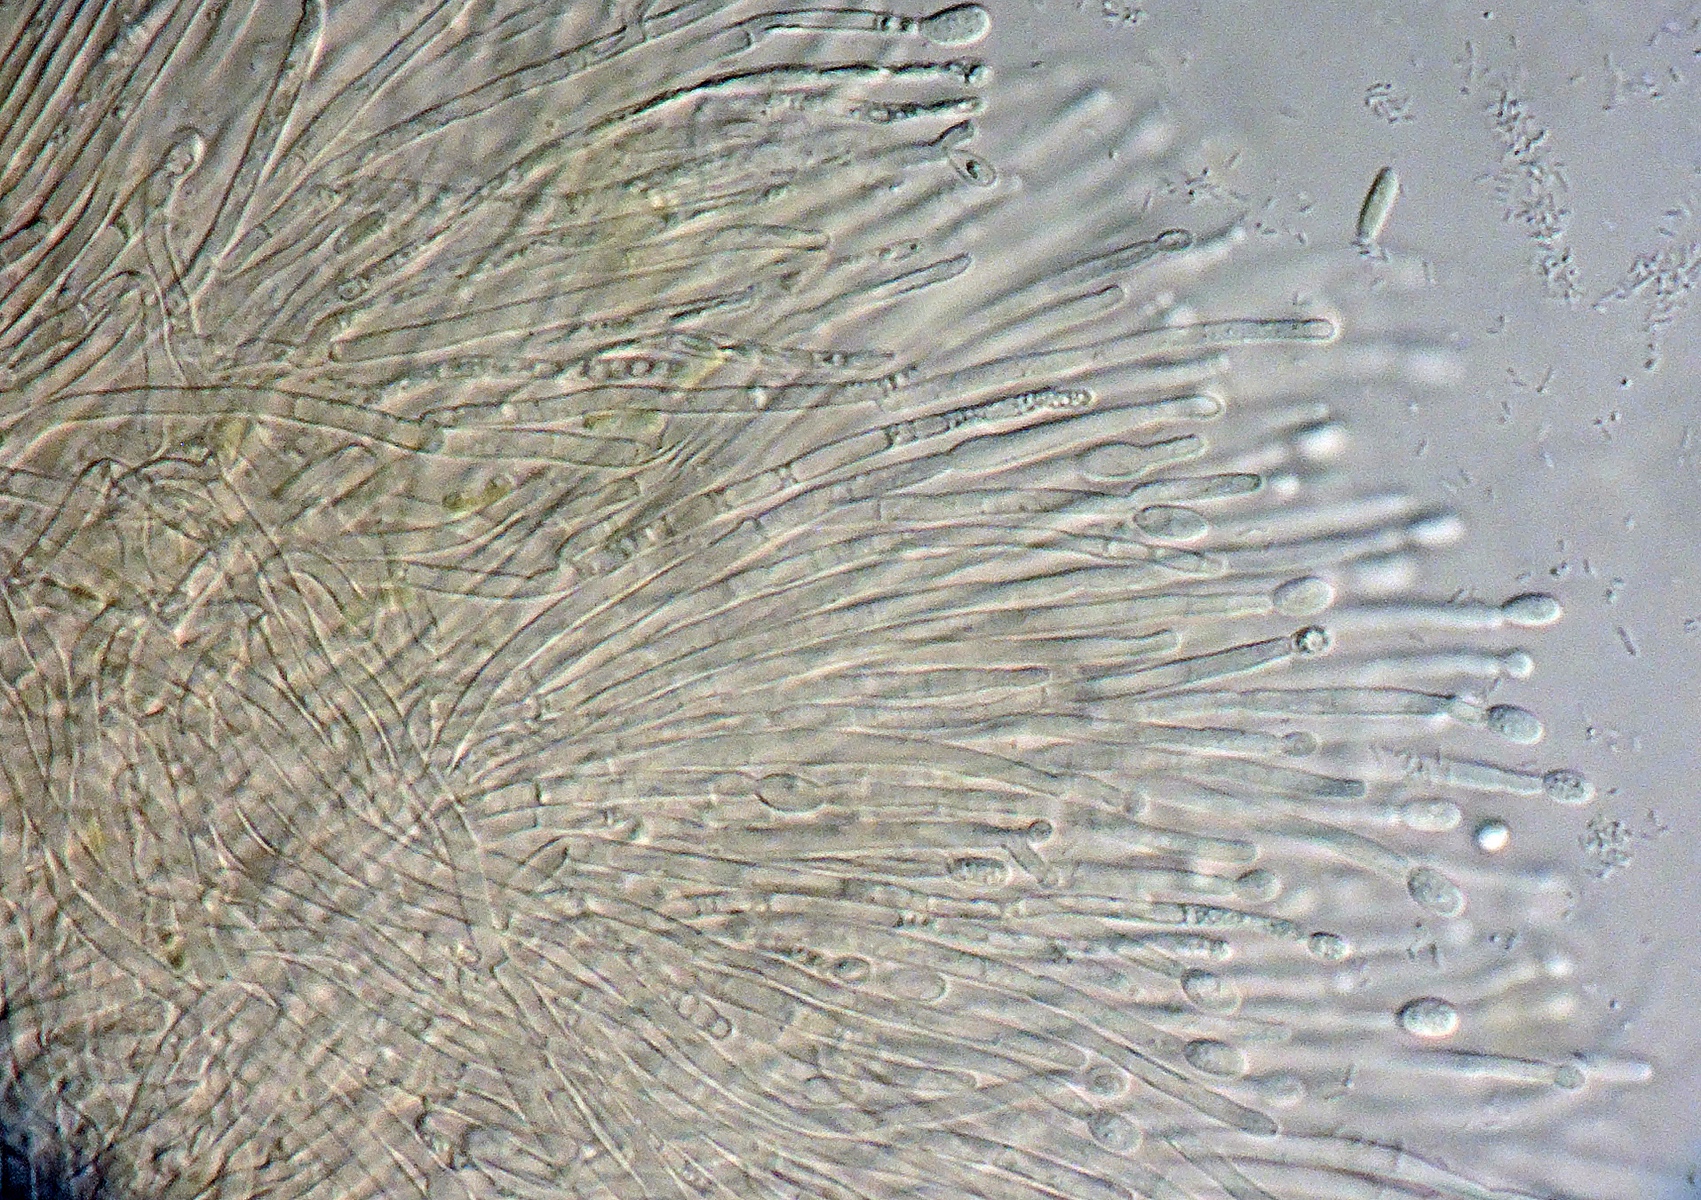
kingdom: Fungi
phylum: Ascomycota
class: Sordariomycetes
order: Hypocreales
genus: Stilbella
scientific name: Stilbella
